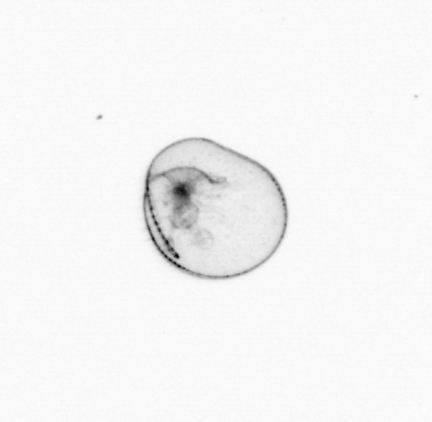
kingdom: Chromista
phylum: Myzozoa
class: Dinophyceae
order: Noctilucales
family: Noctilucaceae
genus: Noctiluca
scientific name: Noctiluca scintillans
